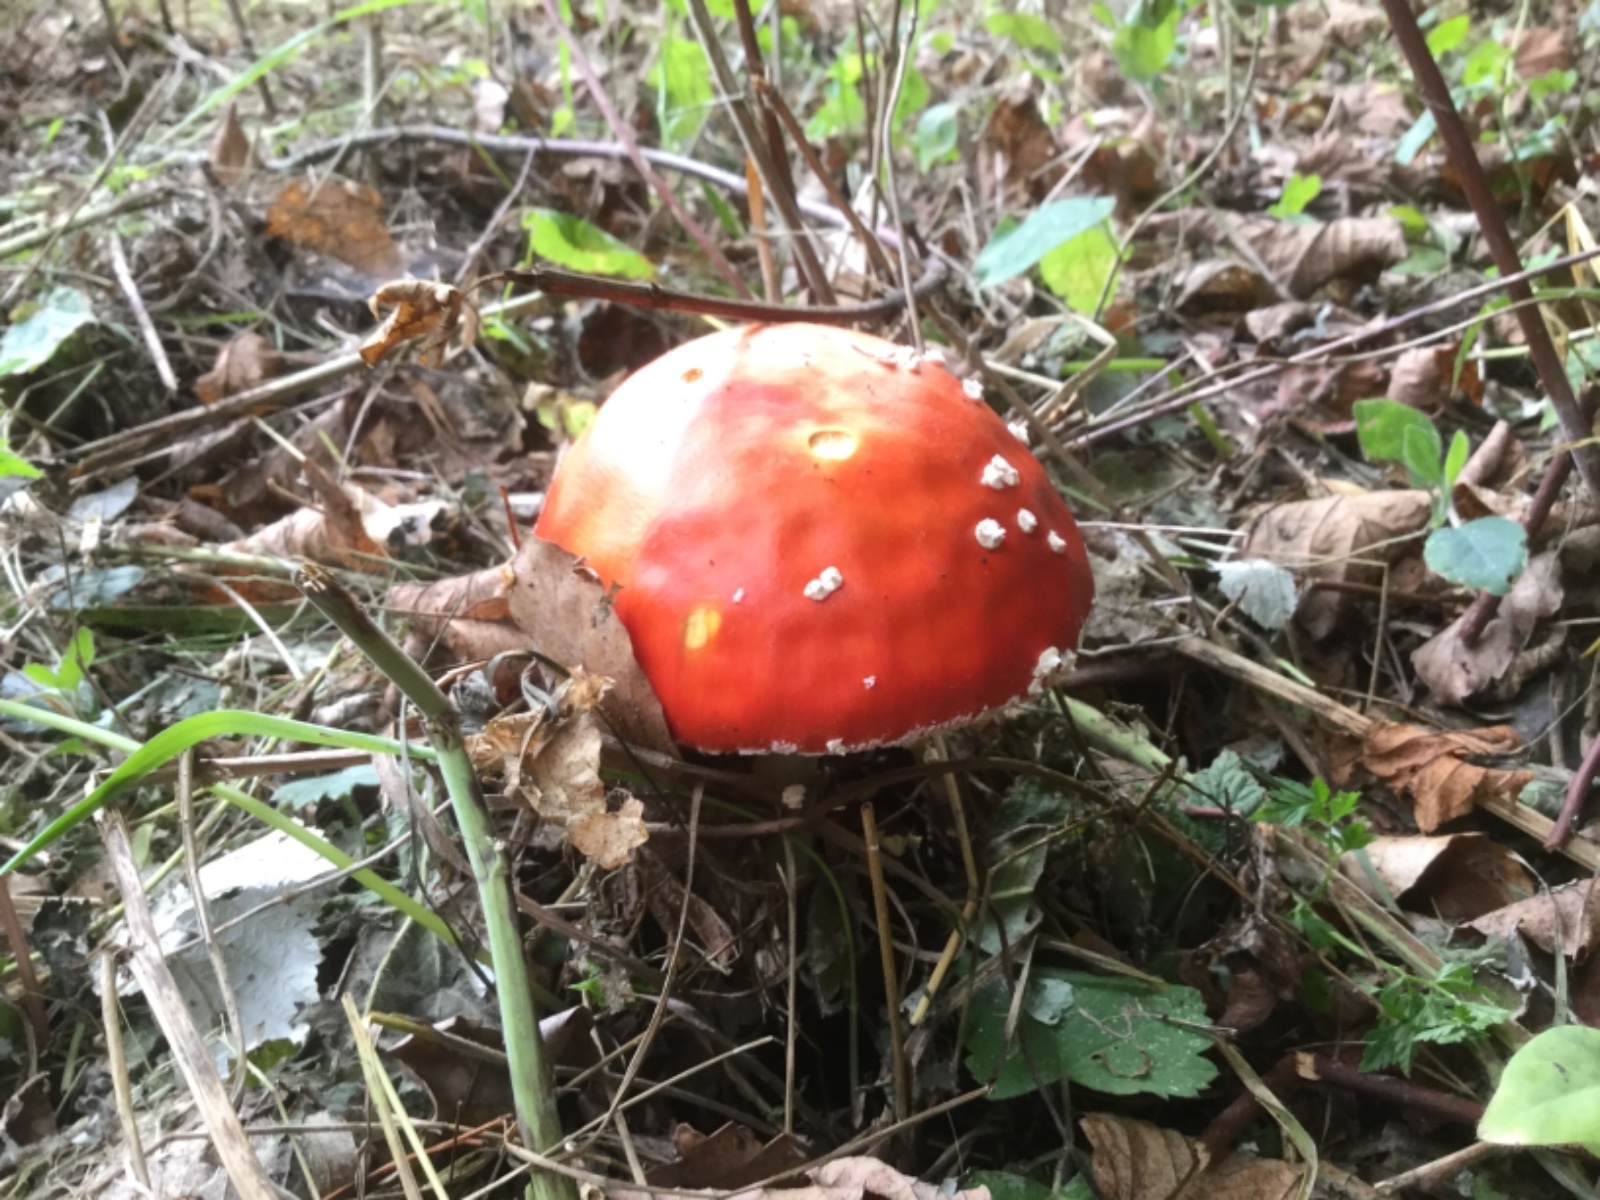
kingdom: Fungi
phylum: Basidiomycota
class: Agaricomycetes
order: Agaricales
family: Amanitaceae
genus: Amanita
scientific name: Amanita muscaria
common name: rød fluesvamp
